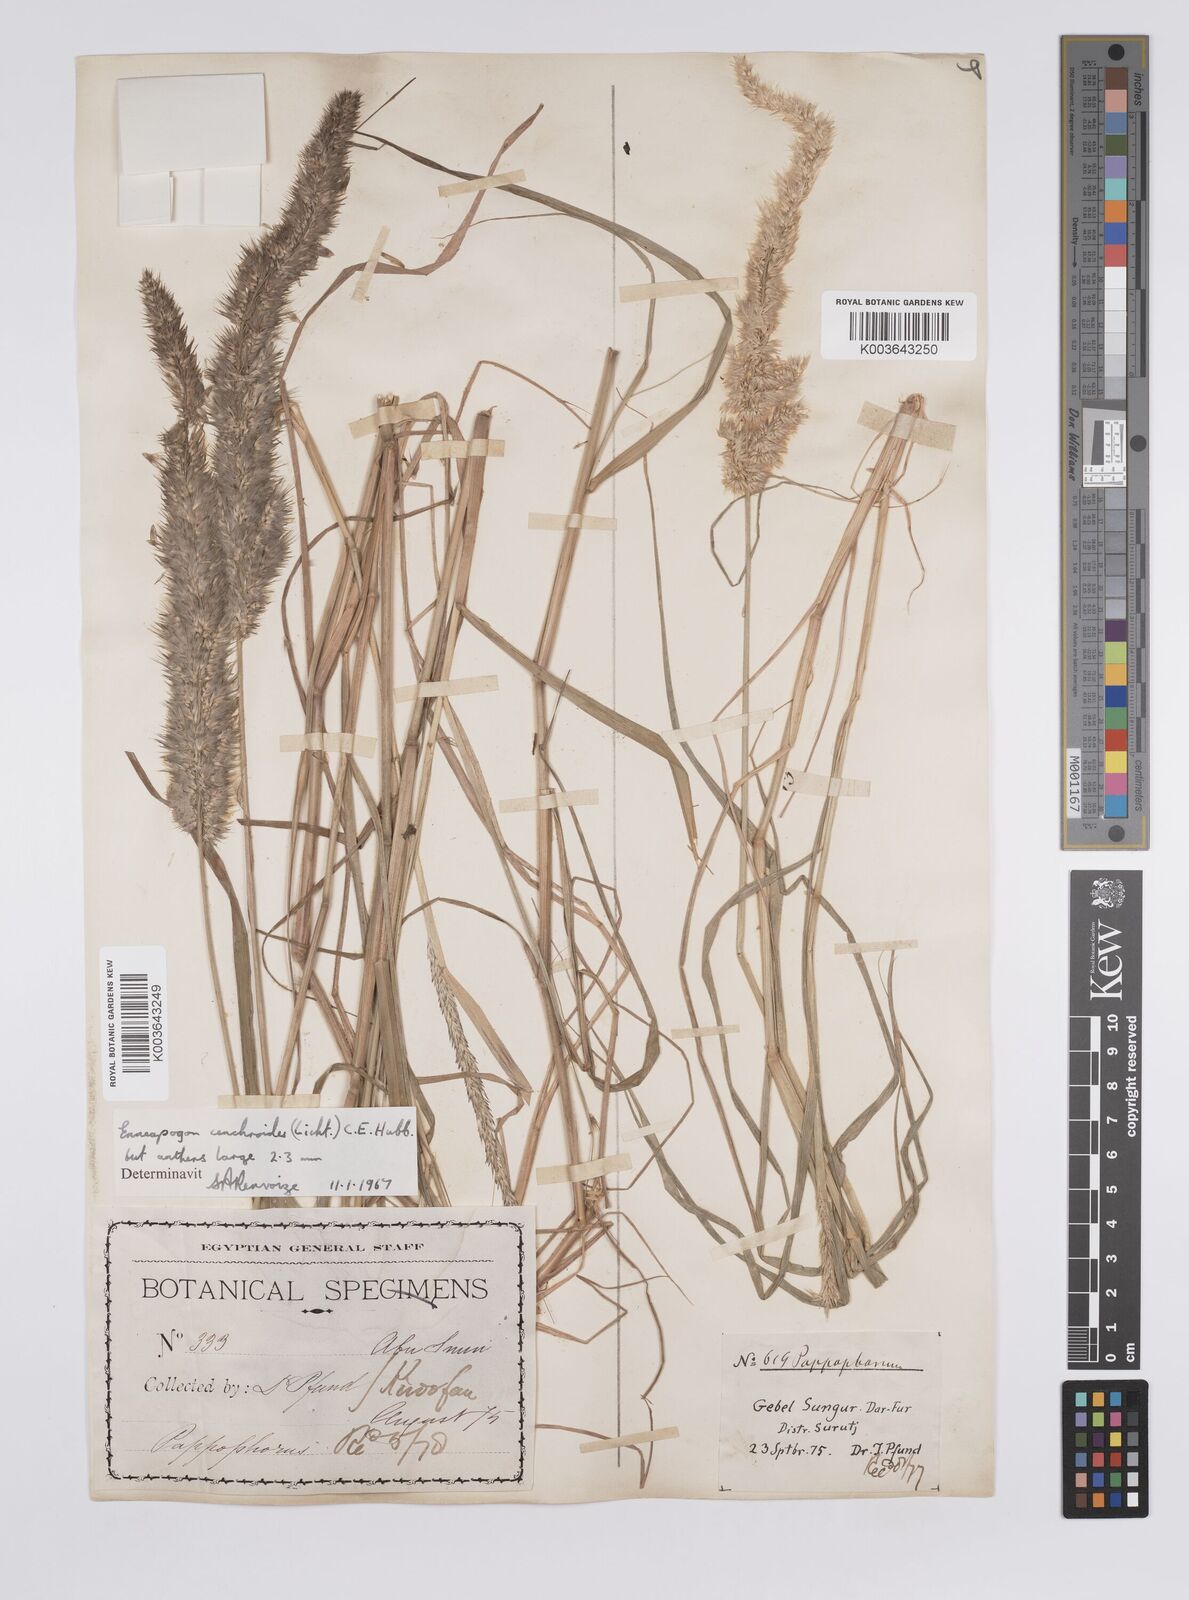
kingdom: Plantae
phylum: Tracheophyta
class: Liliopsida
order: Poales
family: Poaceae
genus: Enneapogon
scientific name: Enneapogon cenchroides
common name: Soft feather pappusgrass
